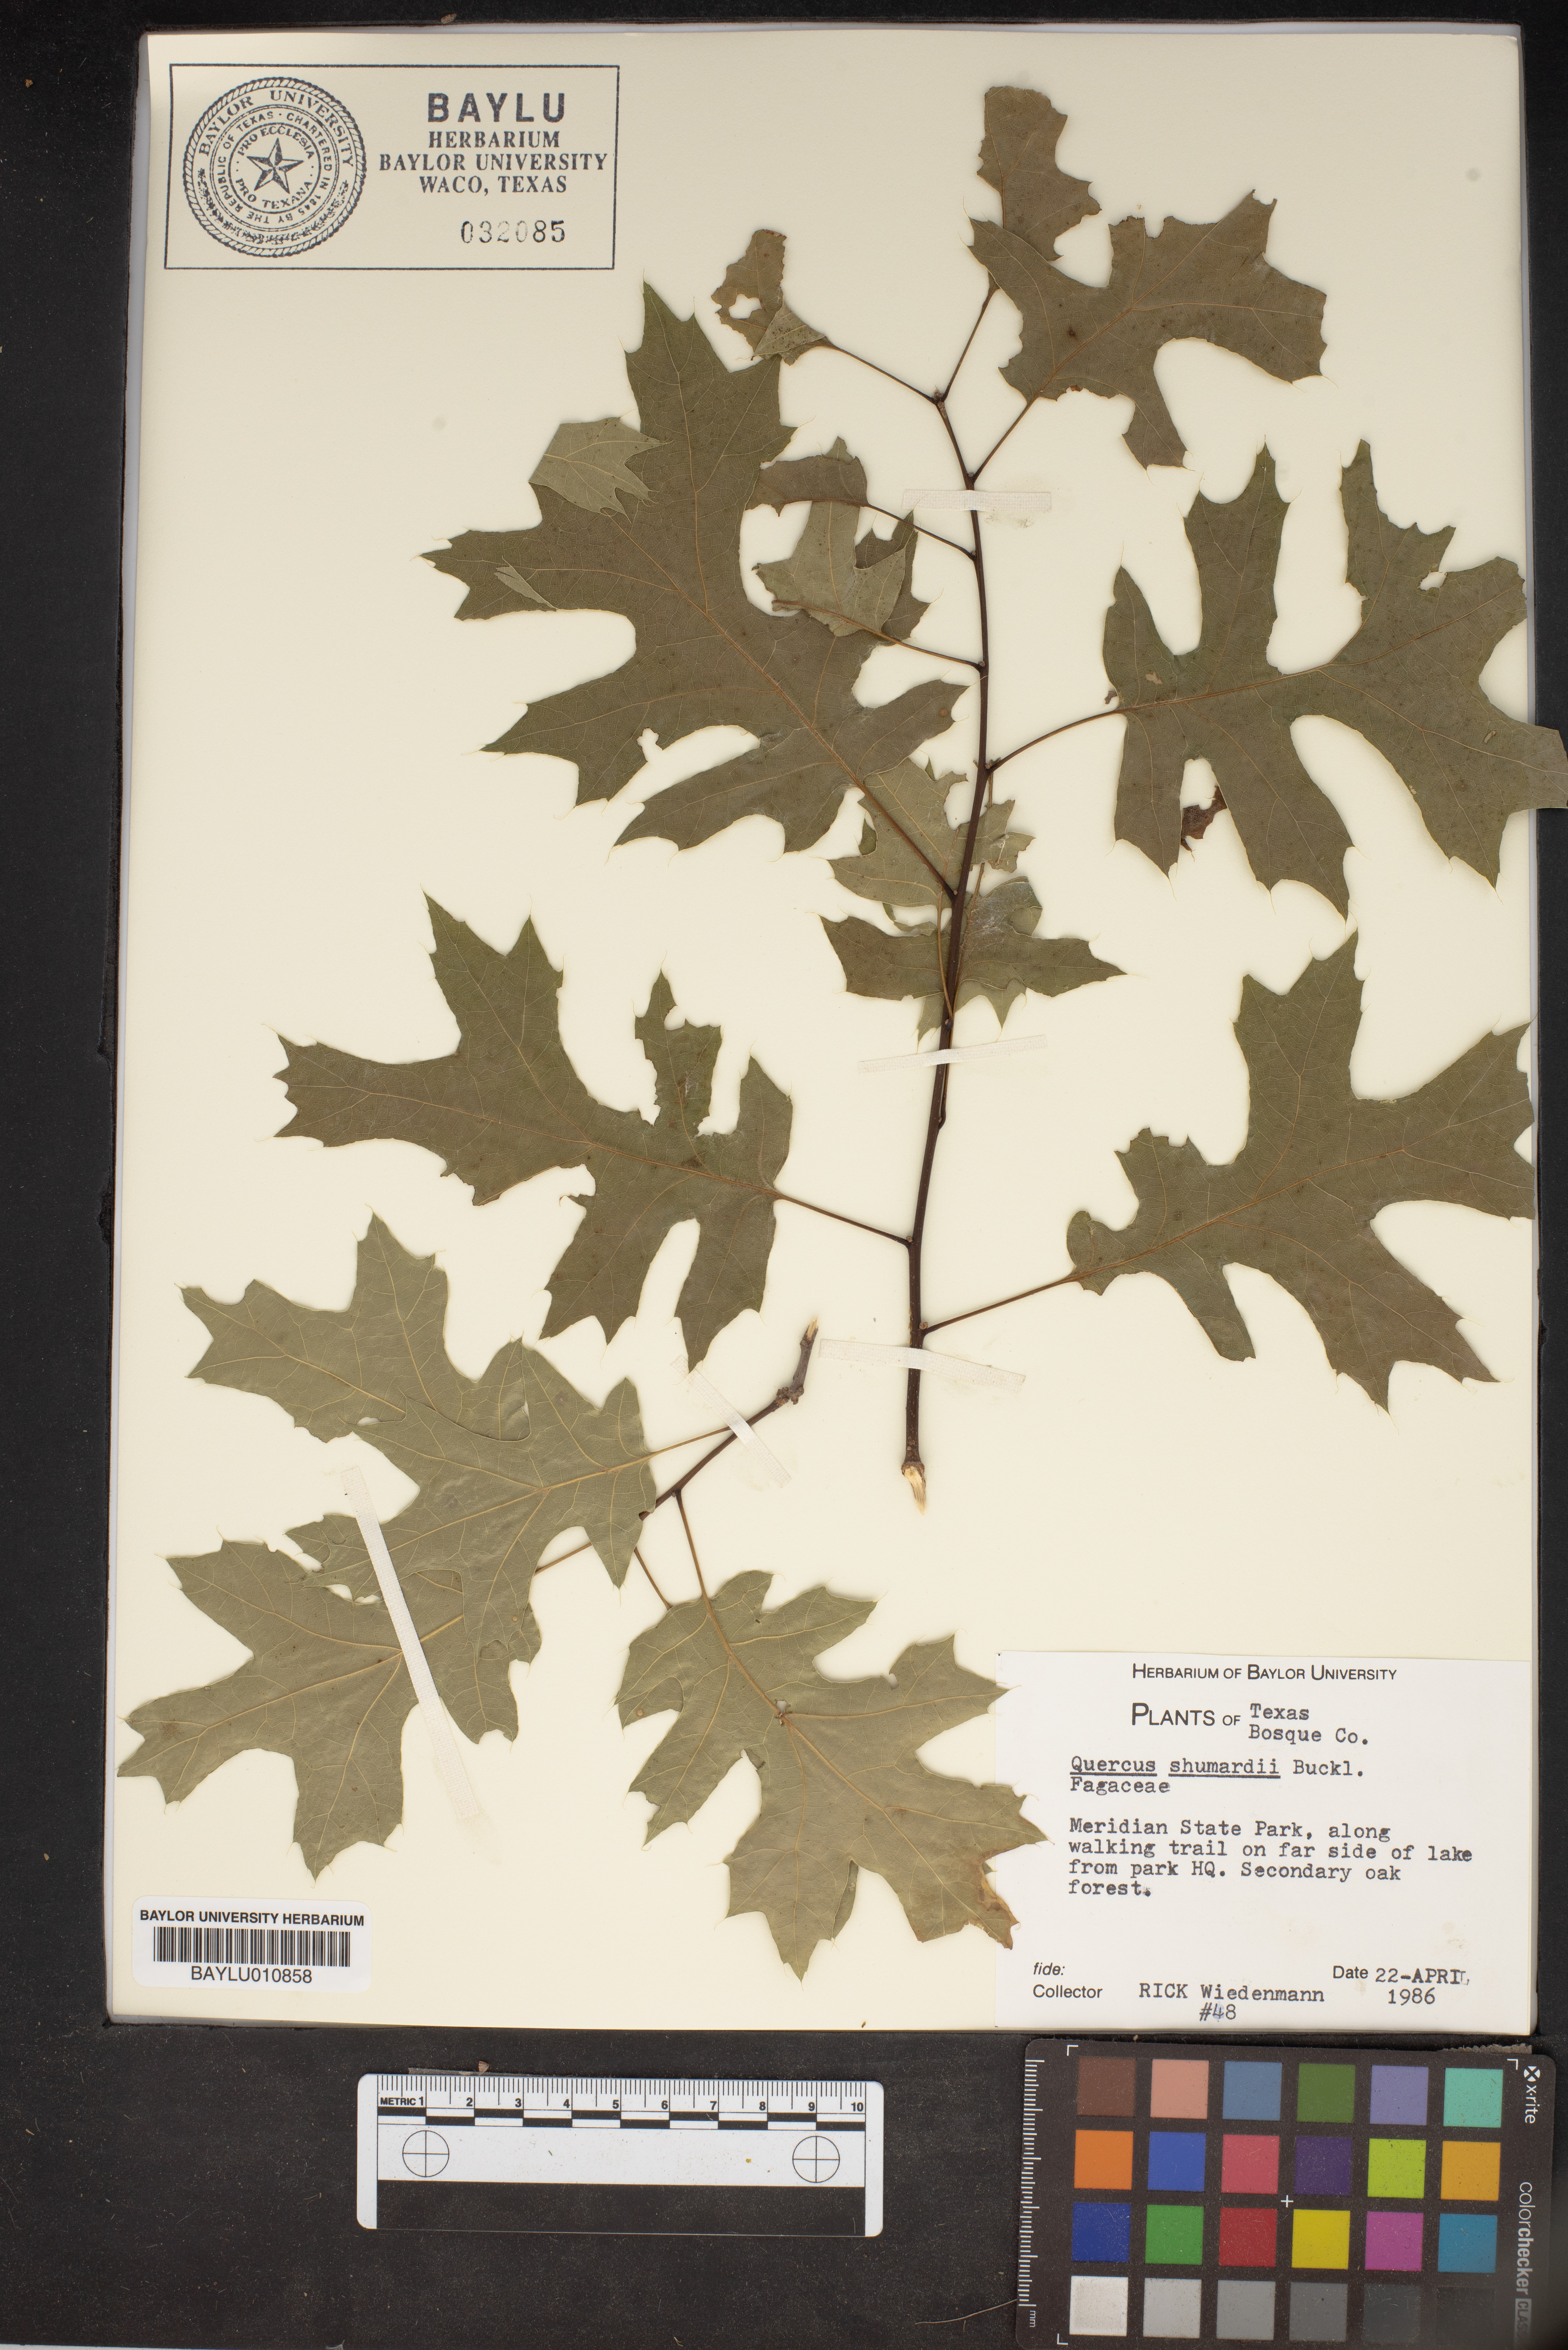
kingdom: Plantae
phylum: Tracheophyta
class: Magnoliopsida
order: Fagales
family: Fagaceae
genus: Quercus
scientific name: Quercus shumardii
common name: Shumard oak
